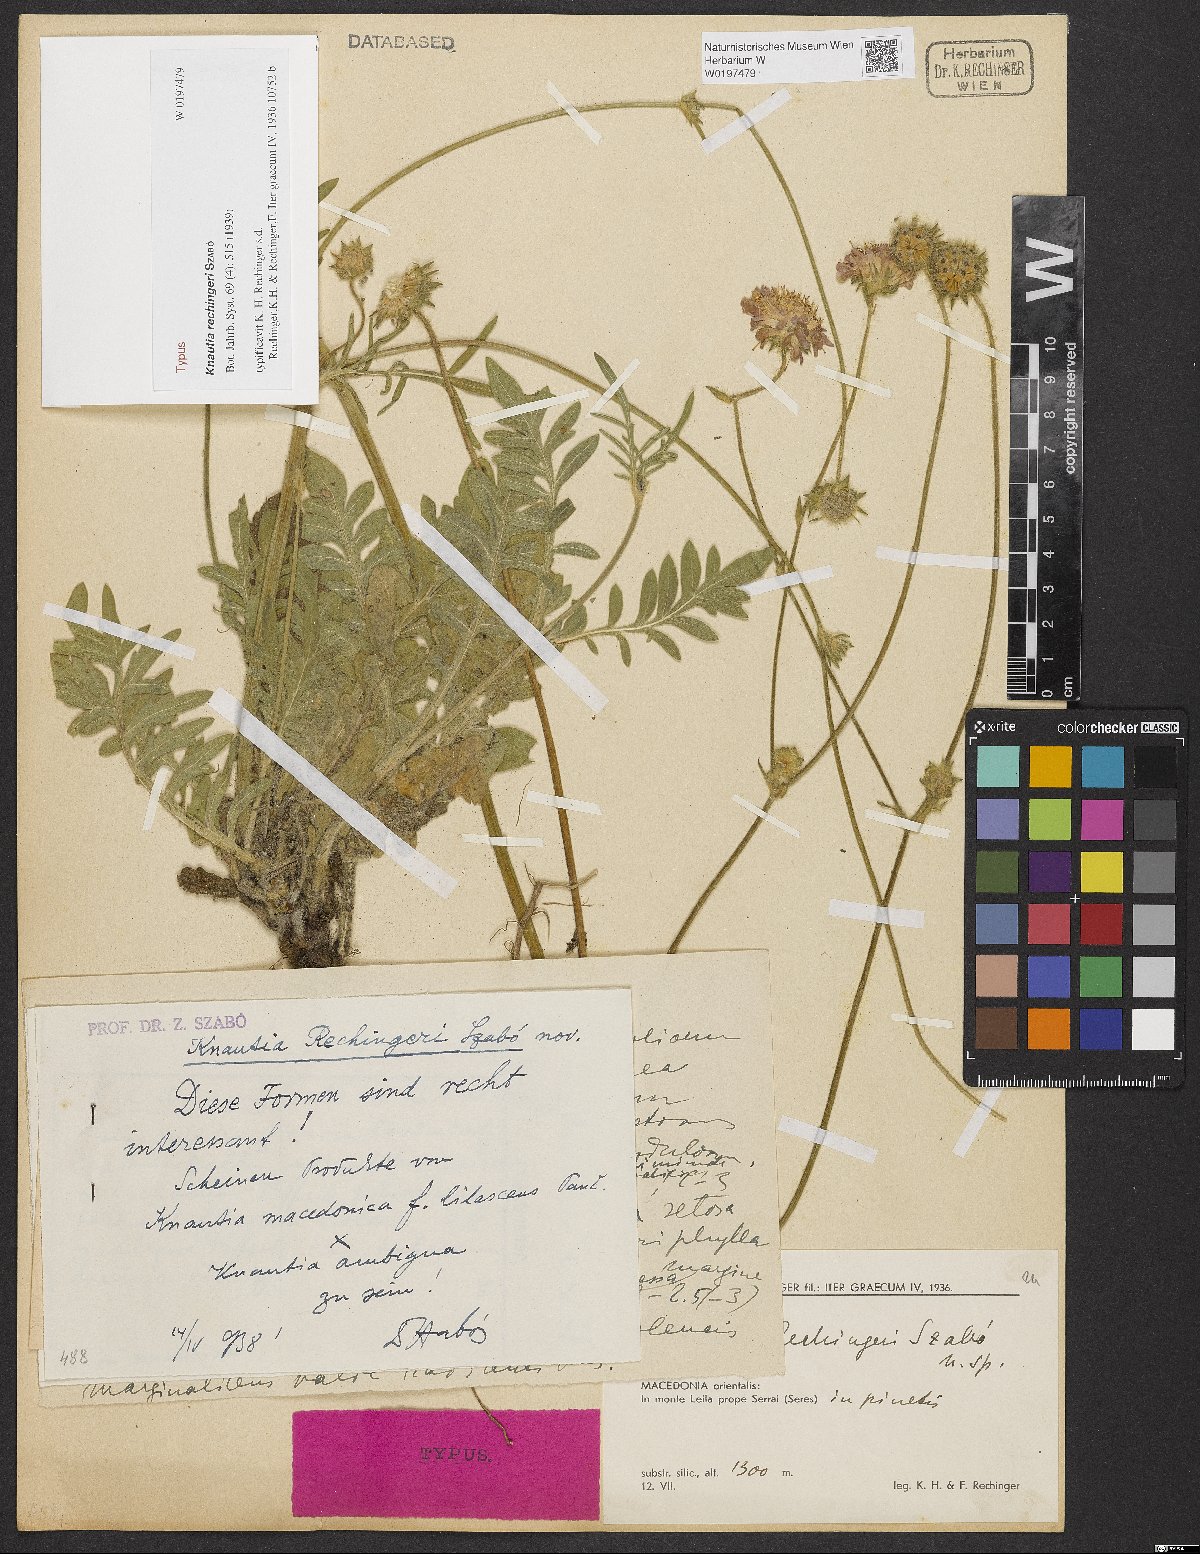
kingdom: Plantae
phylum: Tracheophyta
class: Magnoliopsida
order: Dipsacales
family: Caprifoliaceae
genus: Knautia
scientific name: Knautia rechingeri
